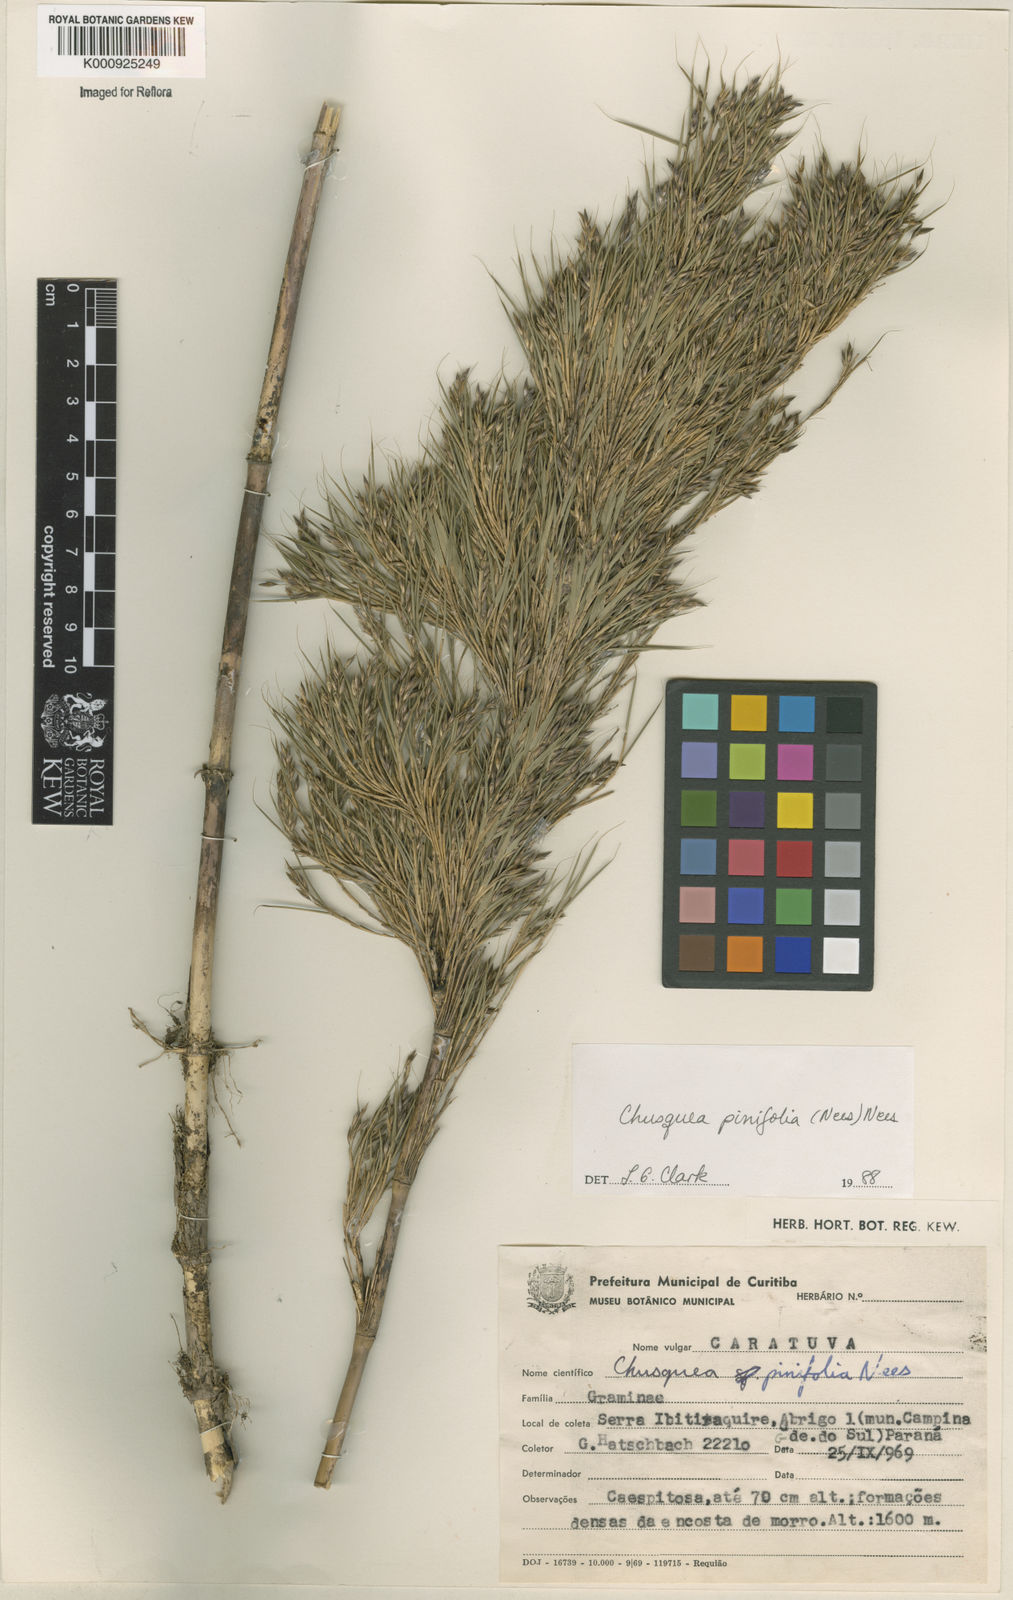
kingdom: Plantae
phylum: Tracheophyta
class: Liliopsida
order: Poales
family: Poaceae
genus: Chusquea
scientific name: Chusquea pinifolia
